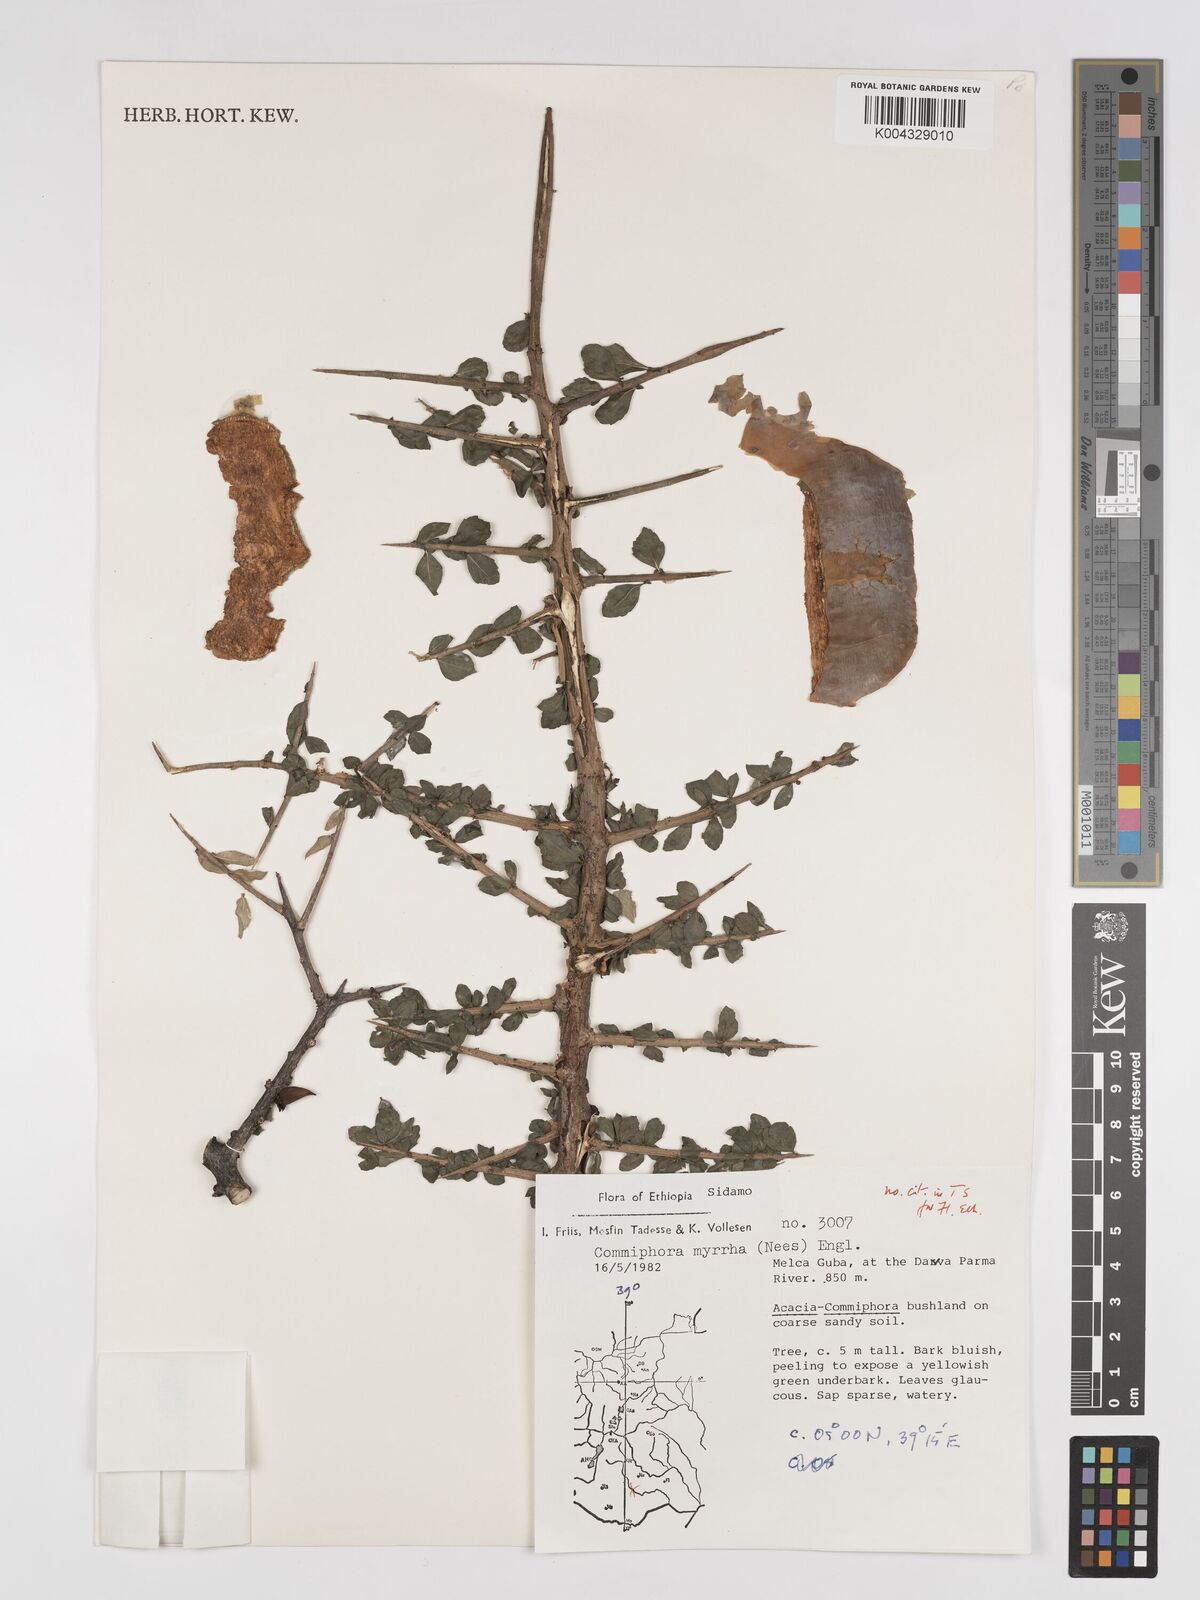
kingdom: Plantae
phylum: Tracheophyta
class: Magnoliopsida
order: Sapindales
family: Burseraceae
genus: Commiphora
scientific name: Commiphora myrrha
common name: African myrrh
